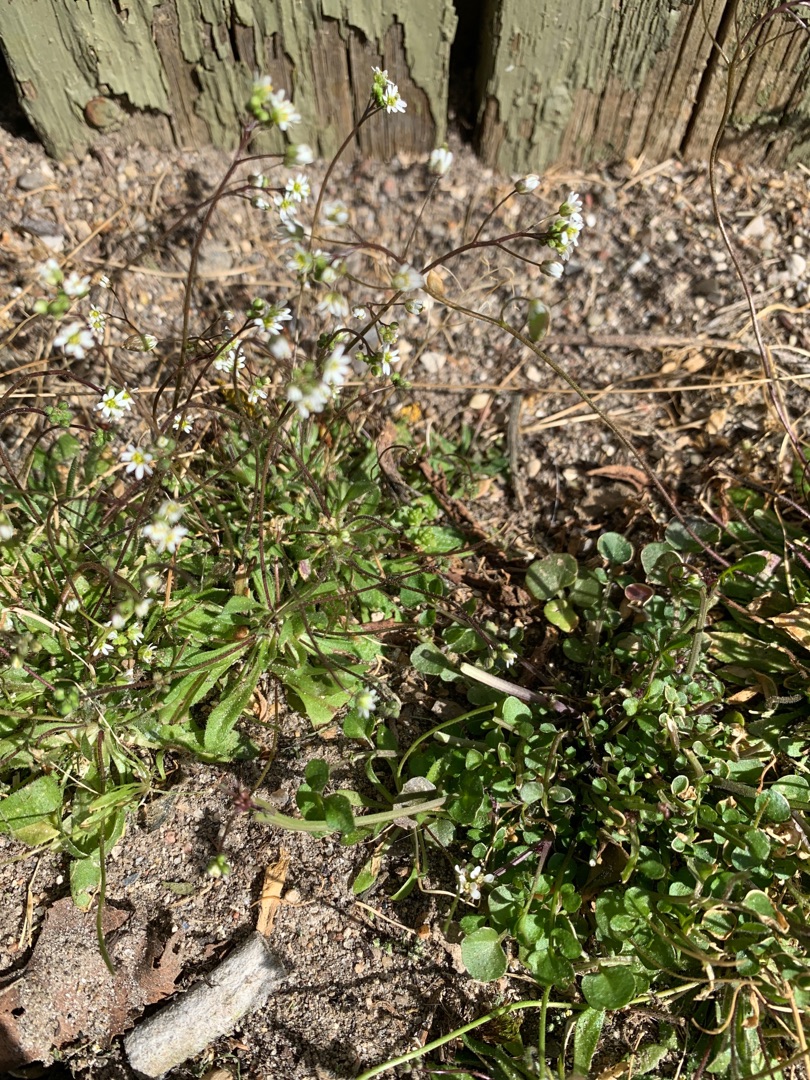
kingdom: Plantae
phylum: Tracheophyta
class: Magnoliopsida
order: Brassicales
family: Brassicaceae
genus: Draba
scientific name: Draba verna
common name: Vår-gæslingeblomst
